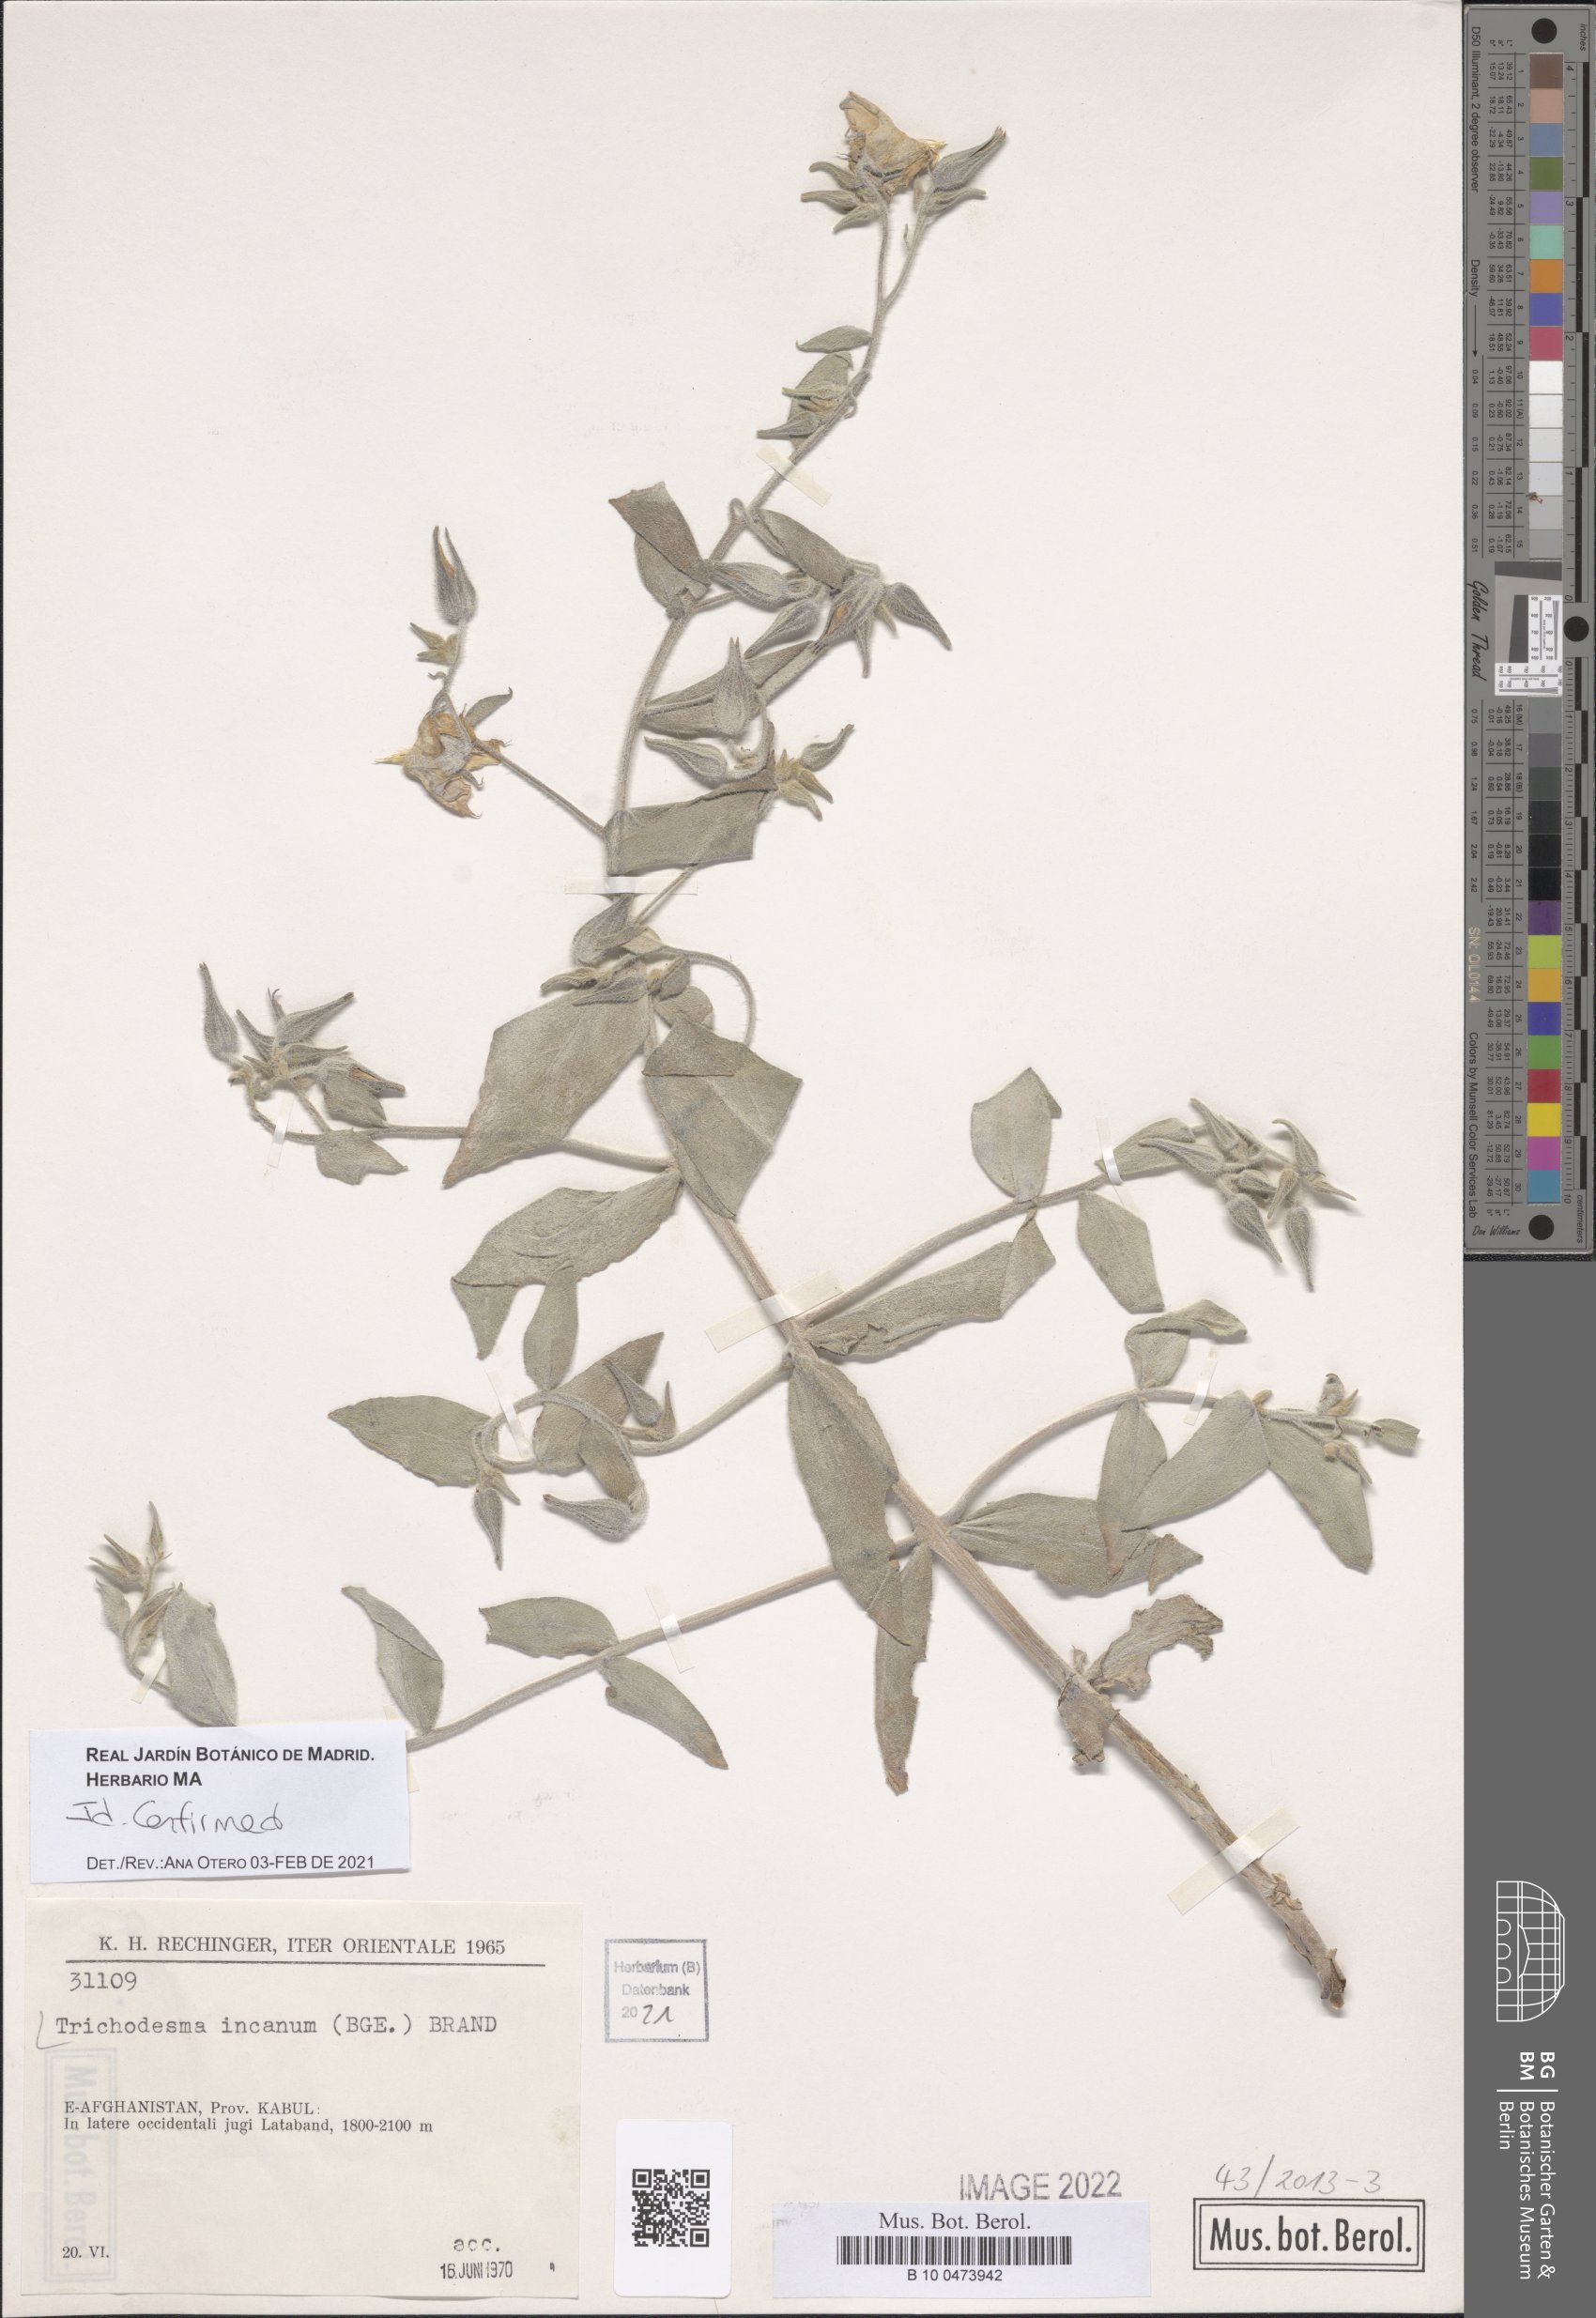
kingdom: Plantae
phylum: Tracheophyta
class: Magnoliopsida
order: Boraginales
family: Boraginaceae
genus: Trichodesma
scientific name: Trichodesma incanum
